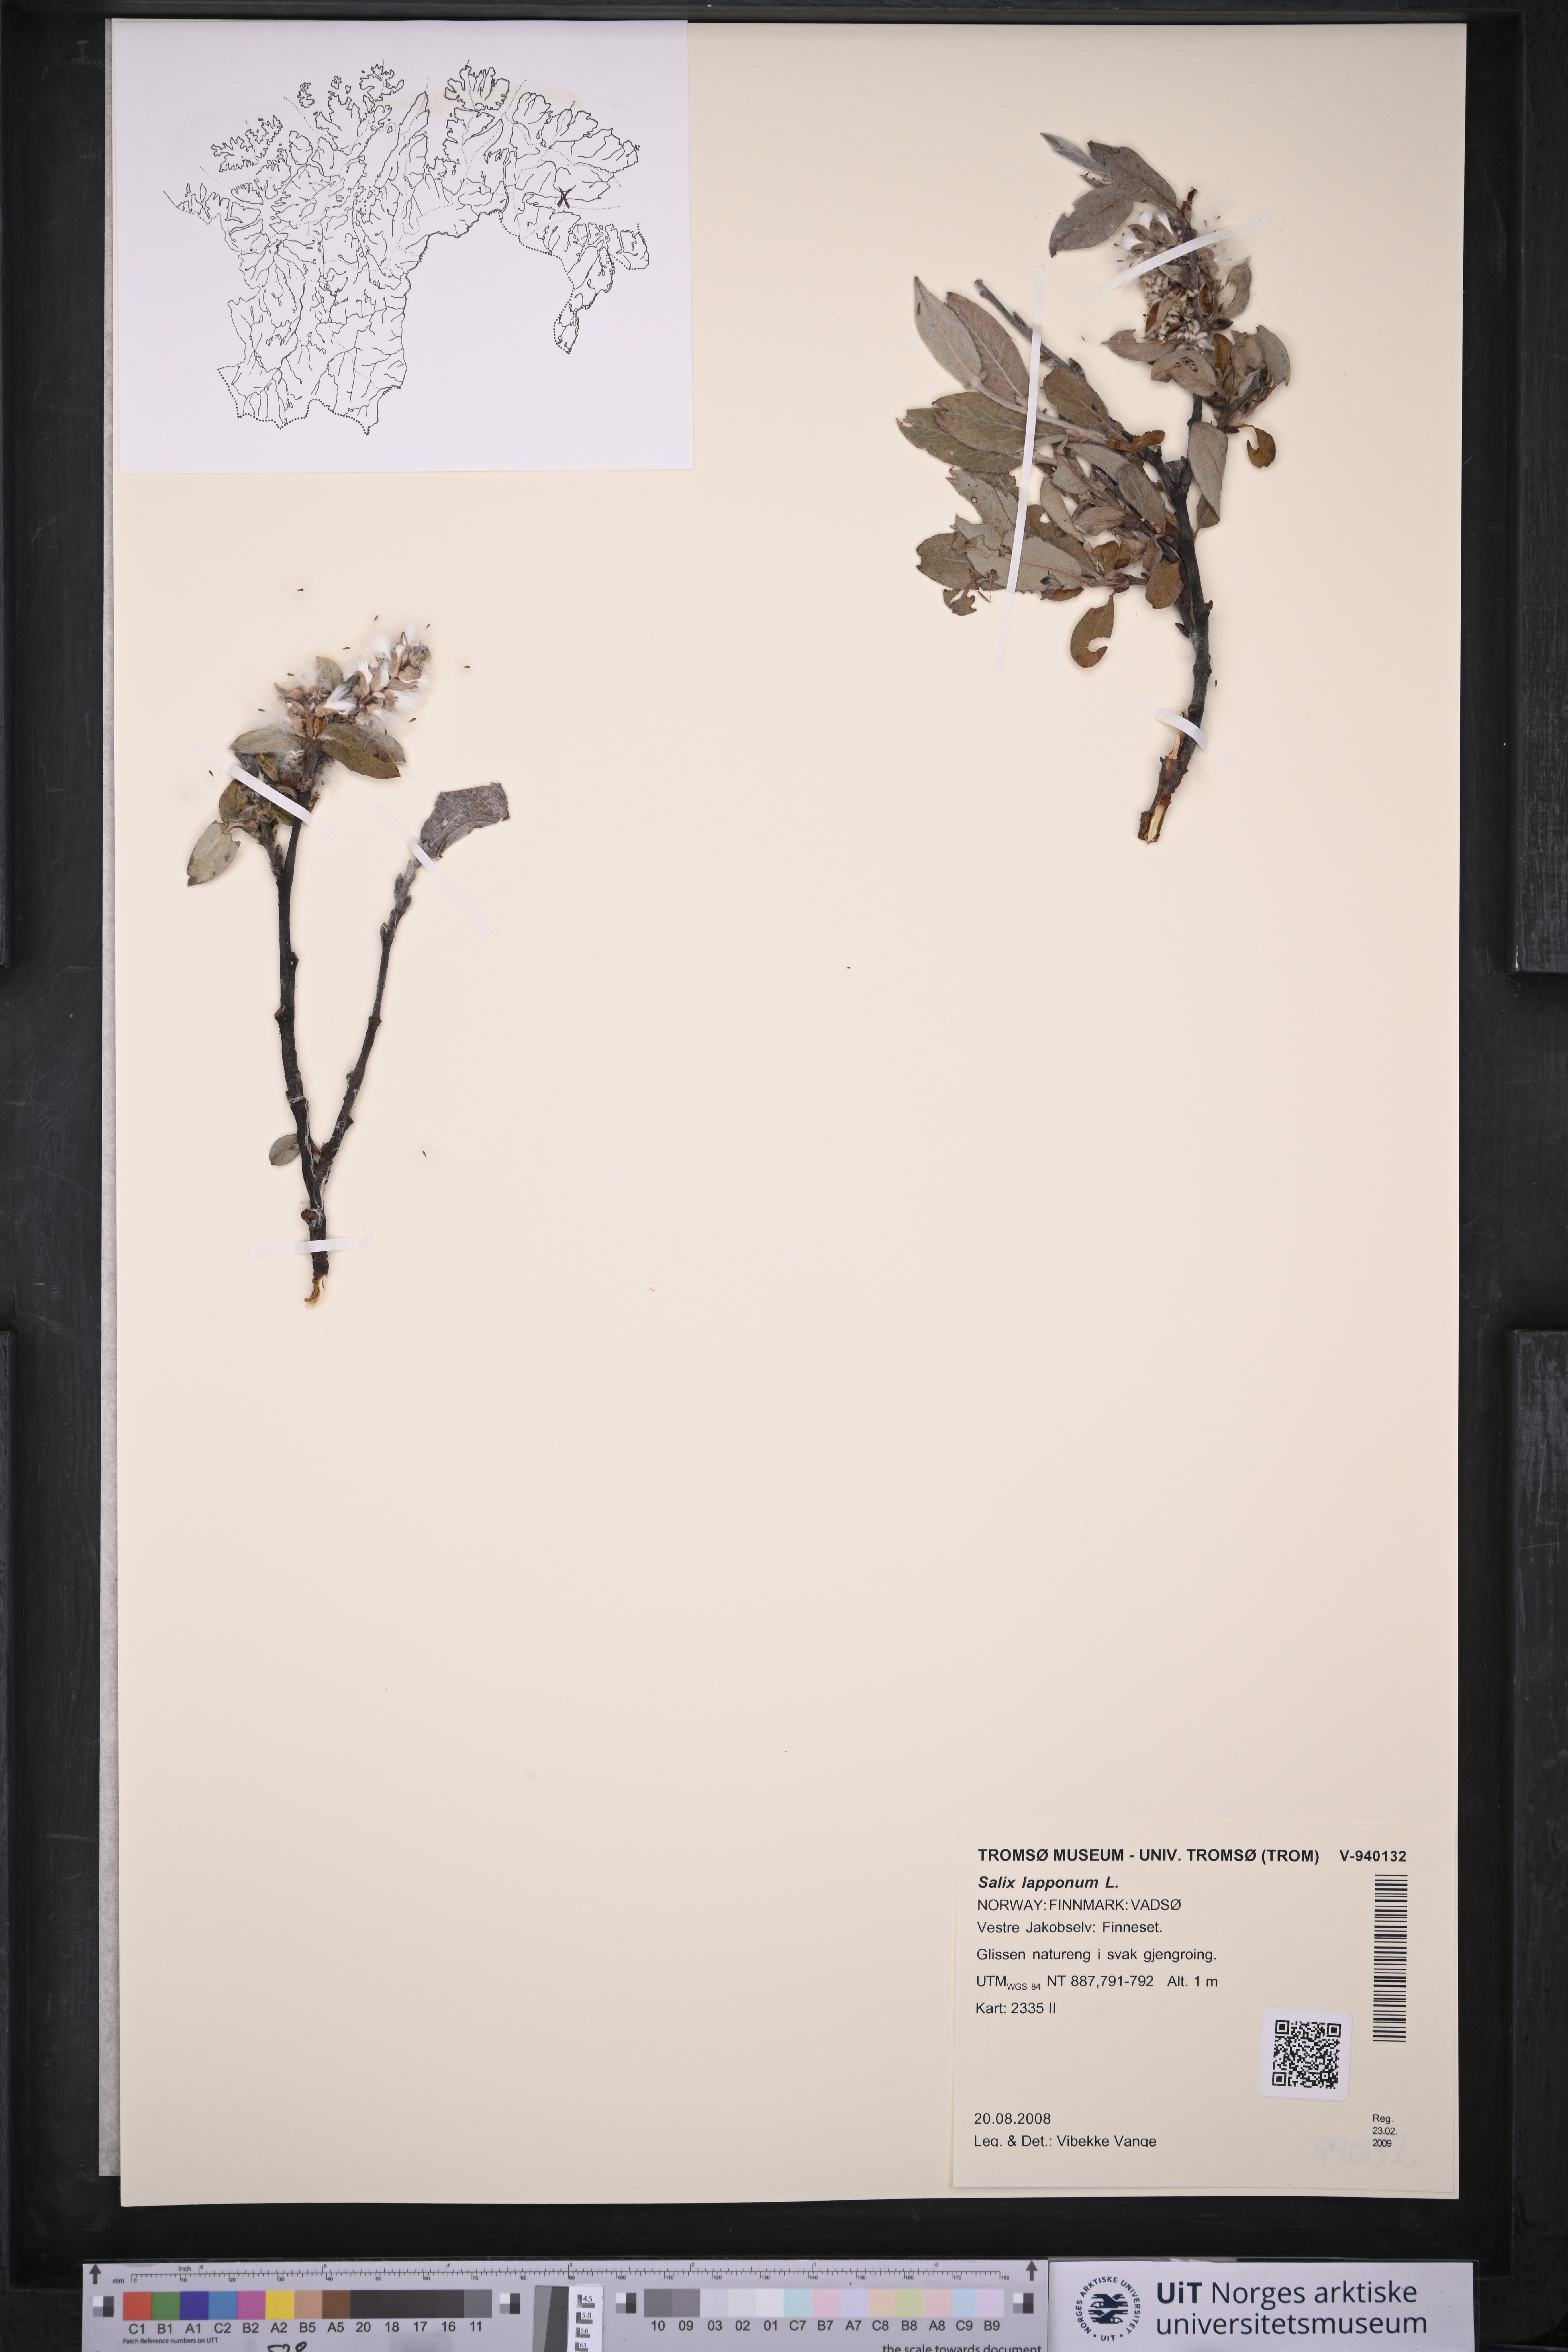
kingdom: Plantae
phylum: Tracheophyta
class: Magnoliopsida
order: Malpighiales
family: Salicaceae
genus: Salix
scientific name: Salix lapponum
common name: Downy willow
